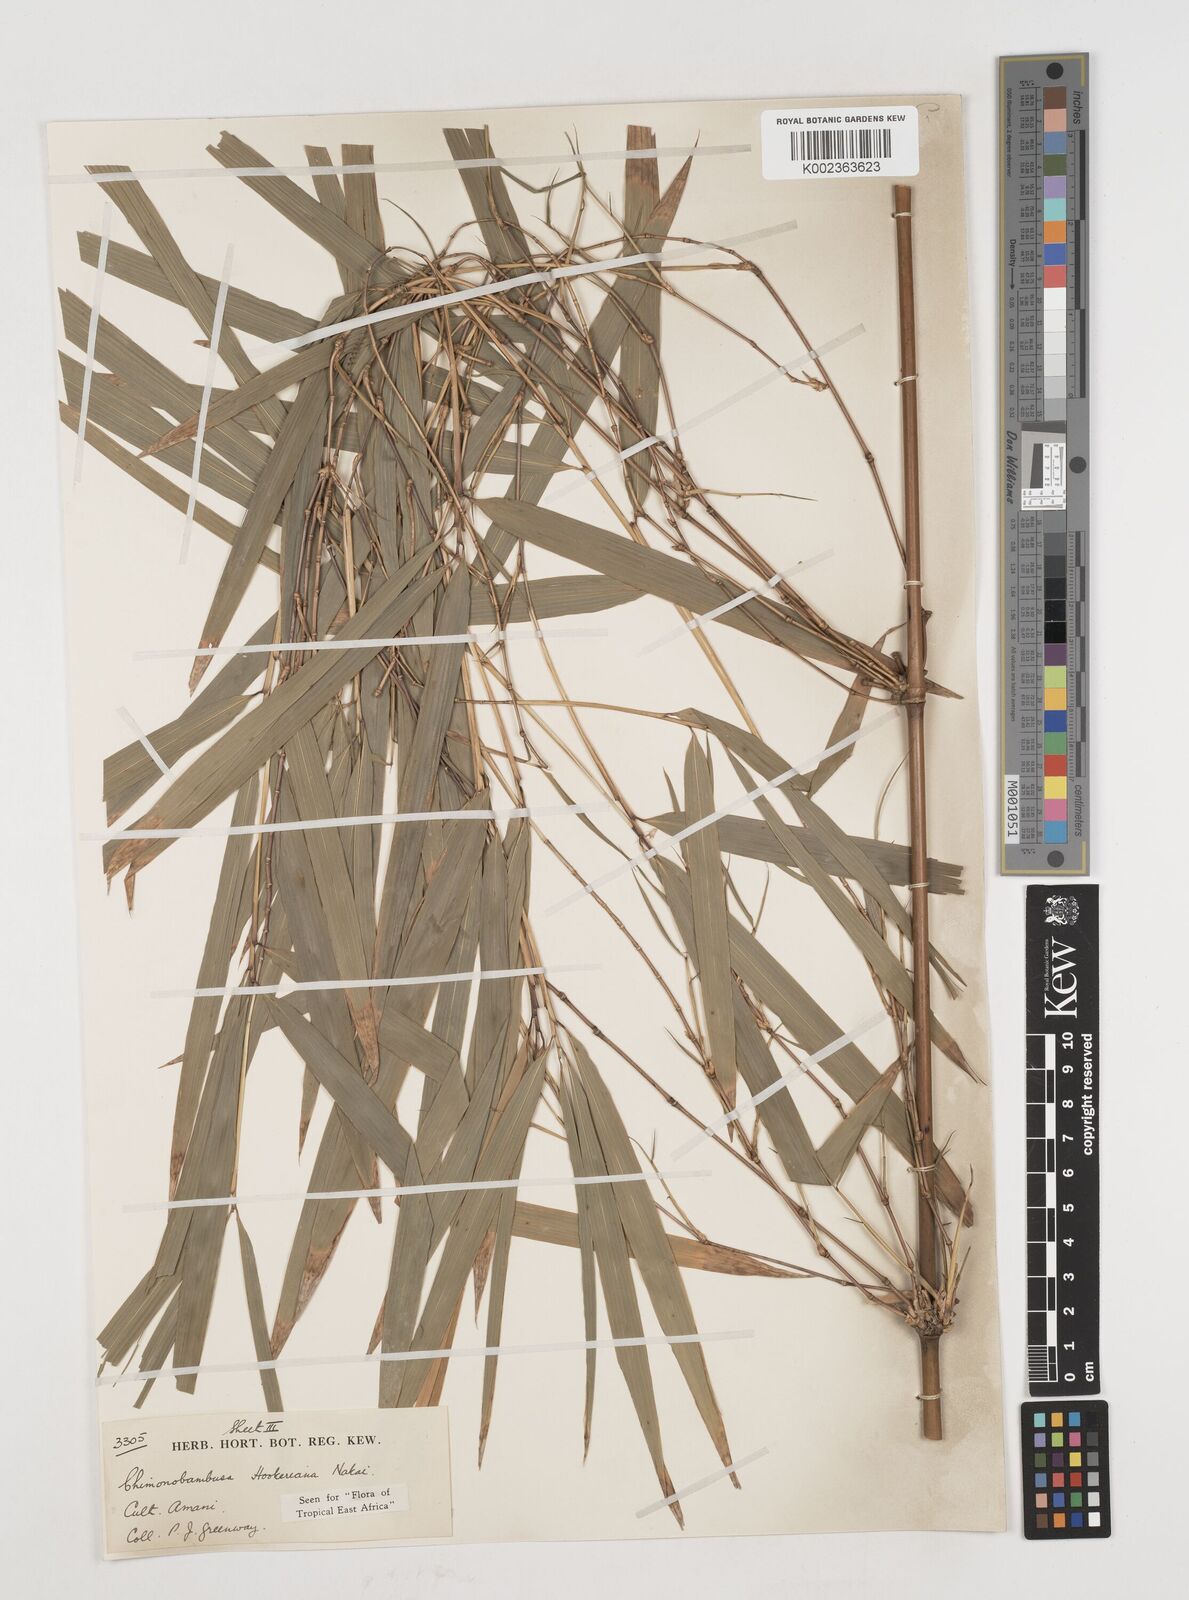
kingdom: Plantae
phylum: Tracheophyta
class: Liliopsida
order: Poales
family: Poaceae
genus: Himalayacalamus
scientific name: Himalayacalamus hookerianus
